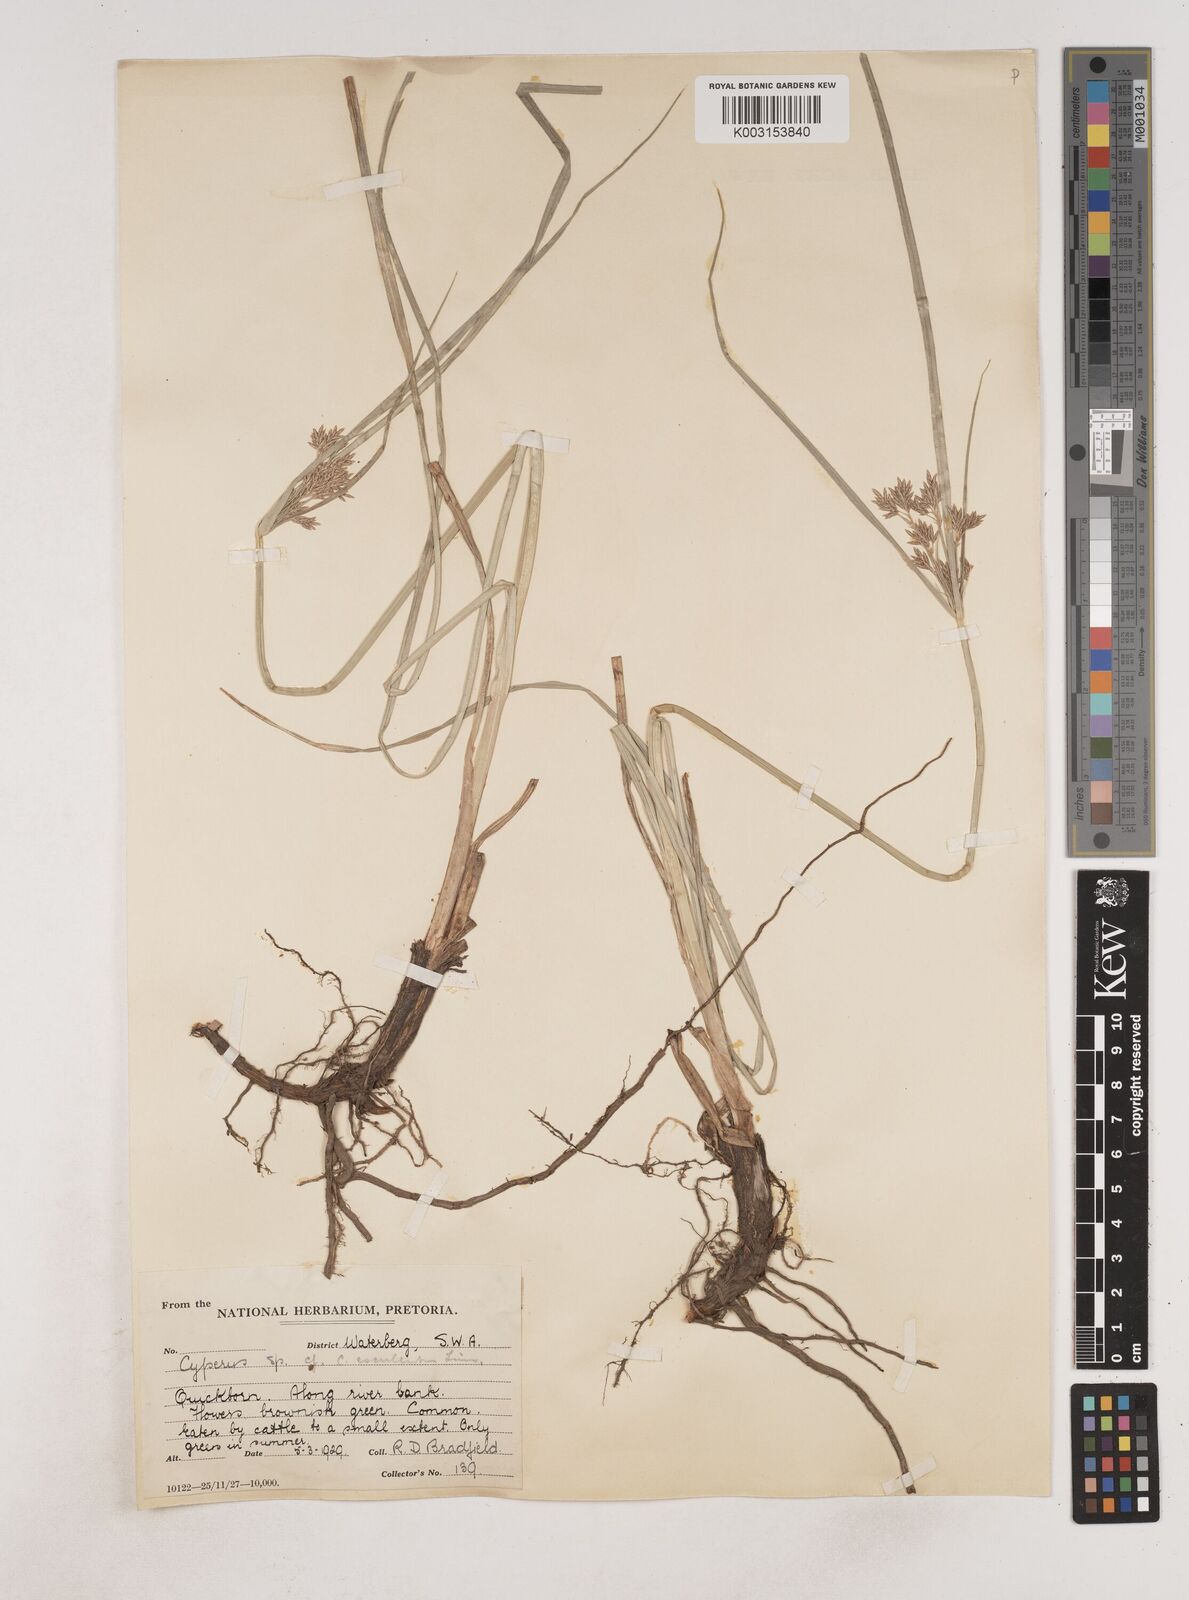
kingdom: Plantae
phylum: Tracheophyta
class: Liliopsida
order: Poales
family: Cyperaceae
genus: Cyperus
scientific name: Cyperus
